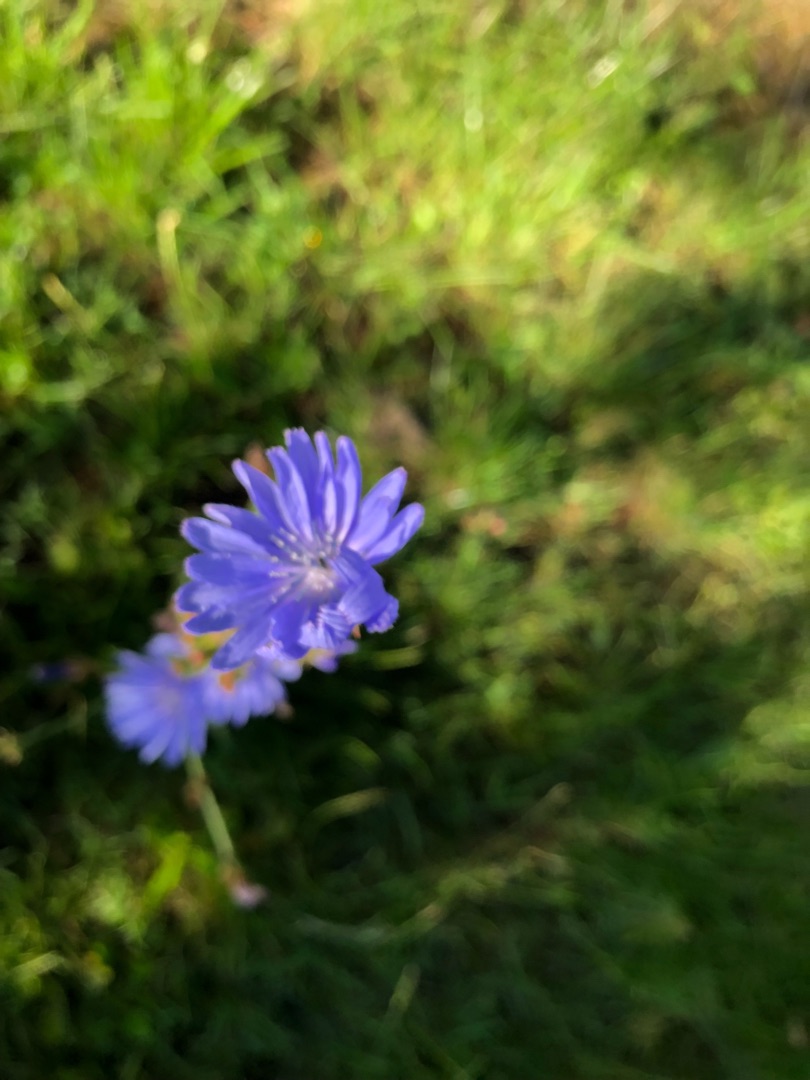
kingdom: Plantae
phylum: Tracheophyta
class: Magnoliopsida
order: Asterales
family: Asteraceae
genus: Cichorium
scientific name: Cichorium intybus
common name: Cikorie
